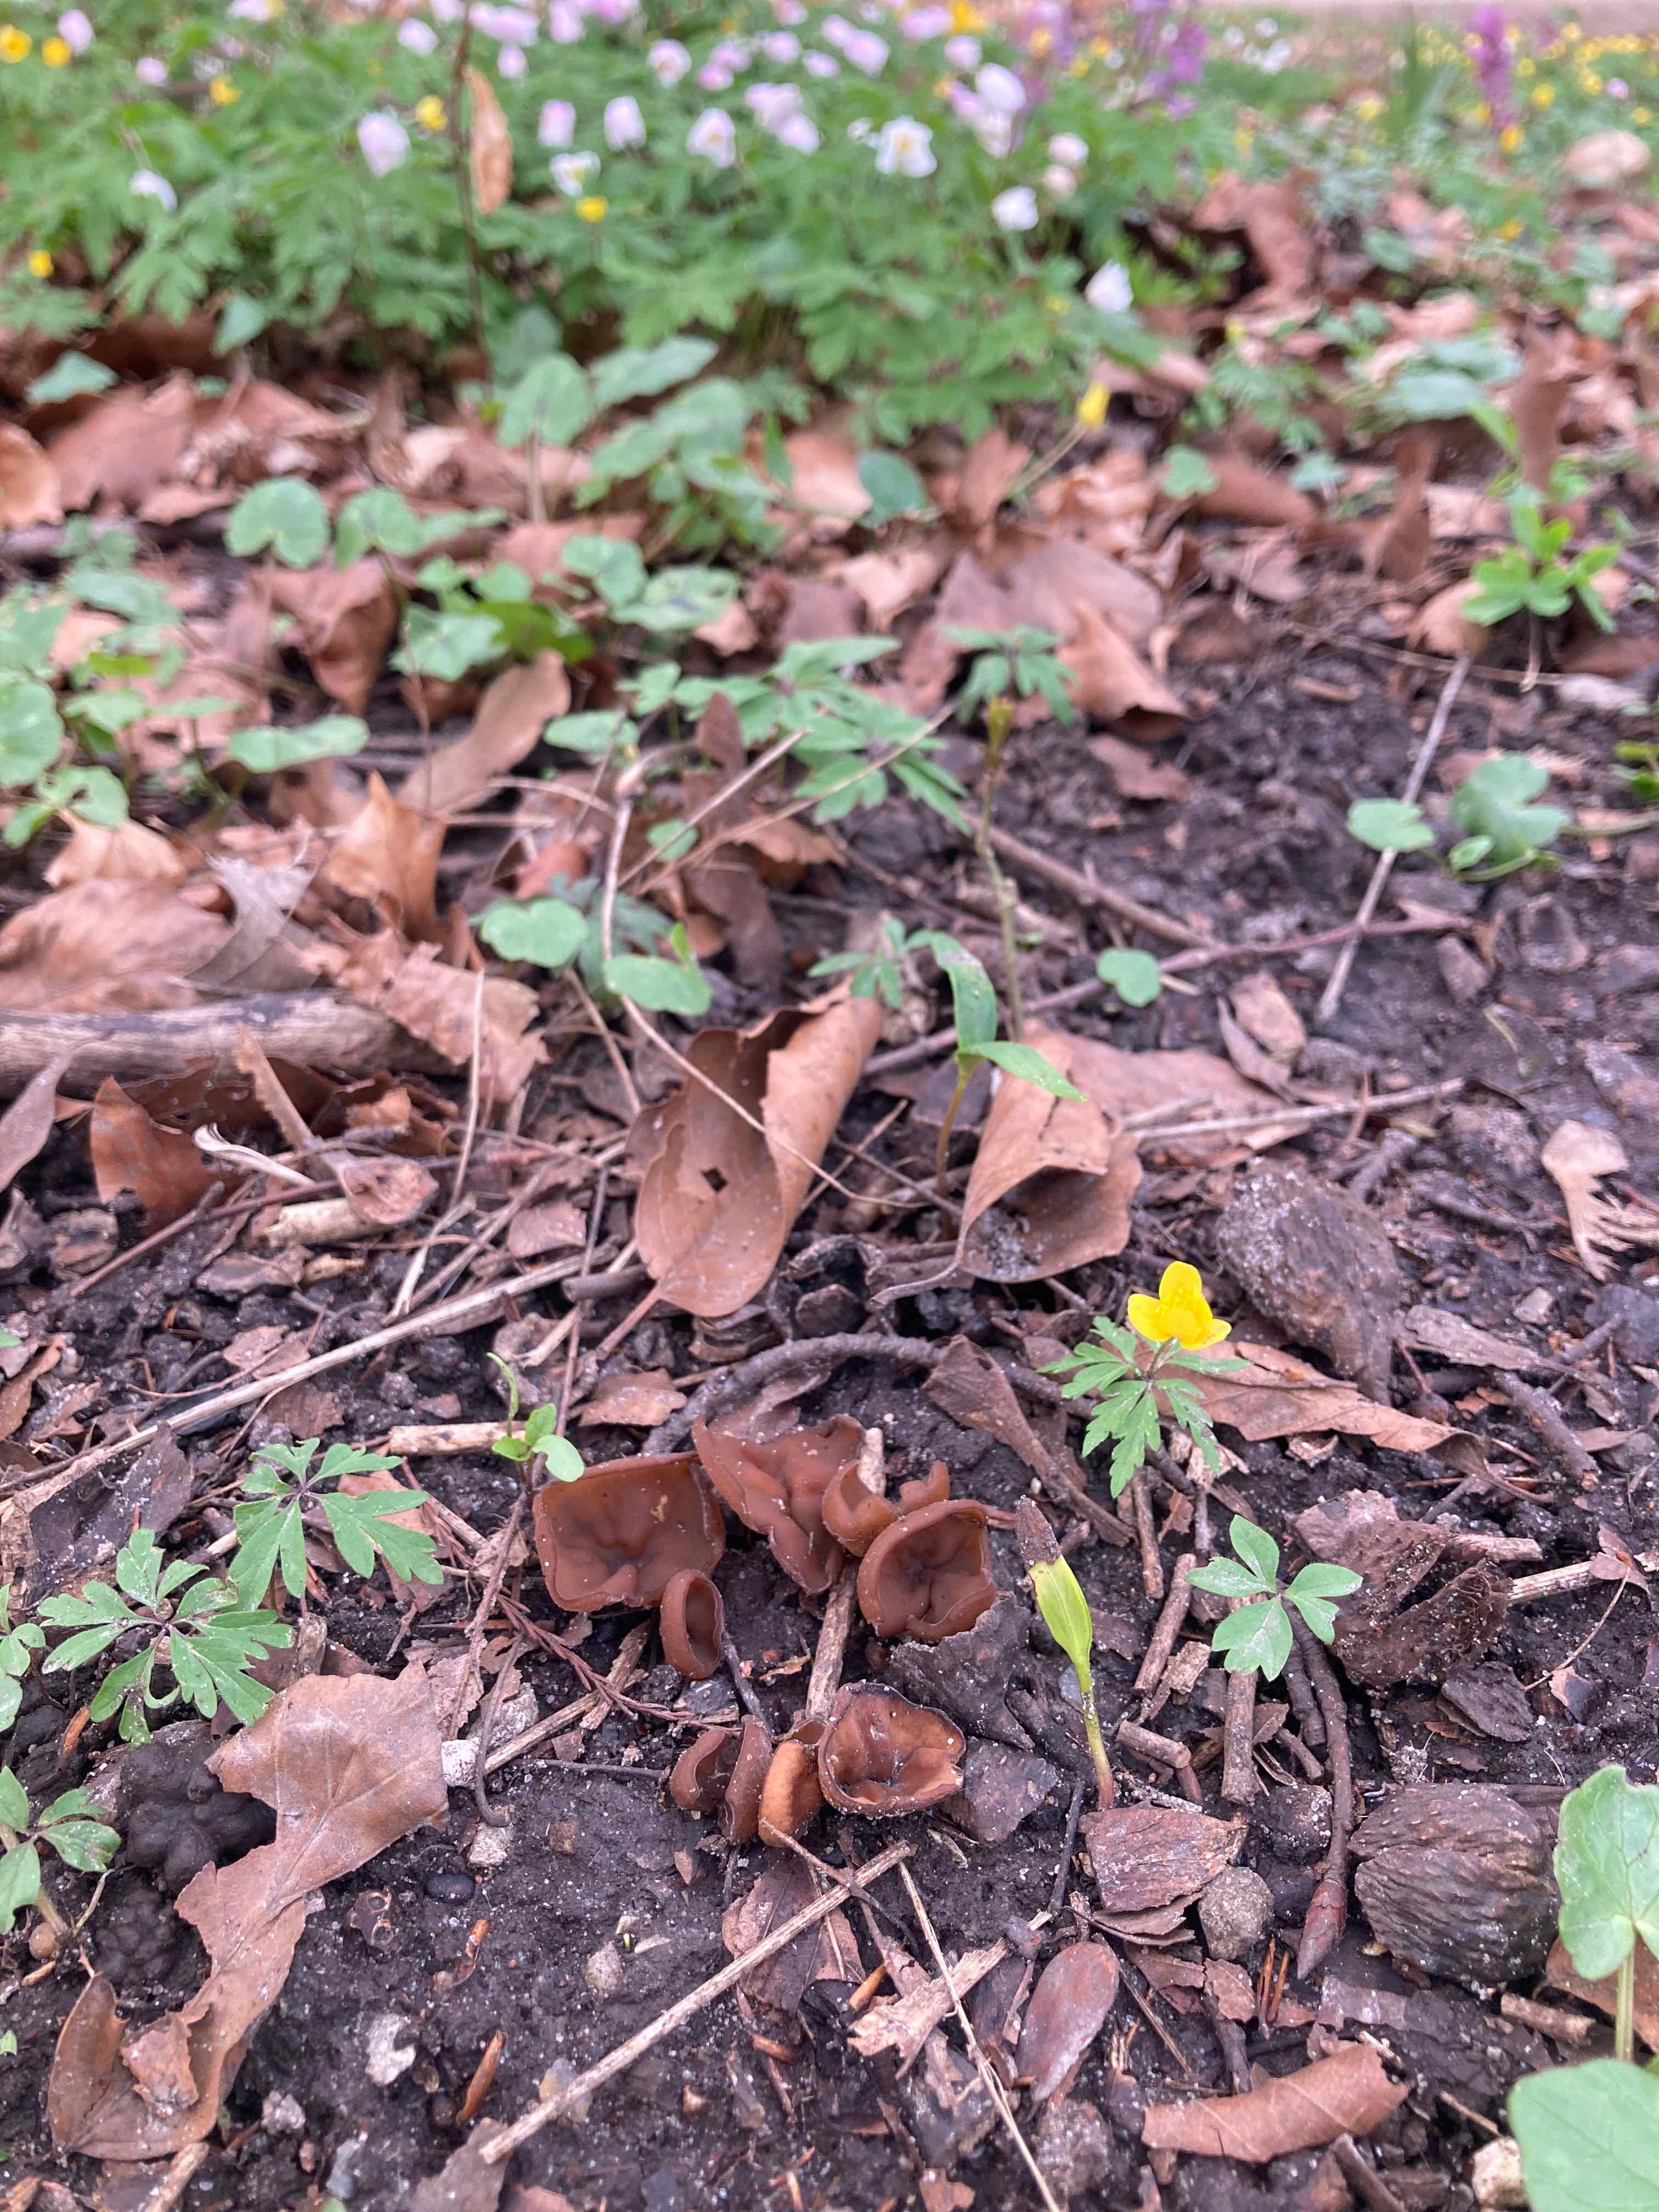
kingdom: Fungi
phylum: Ascomycota
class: Leotiomycetes
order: Helotiales
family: Sclerotiniaceae
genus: Dumontinia
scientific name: Dumontinia tuberosa
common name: anemone-knoldskive
